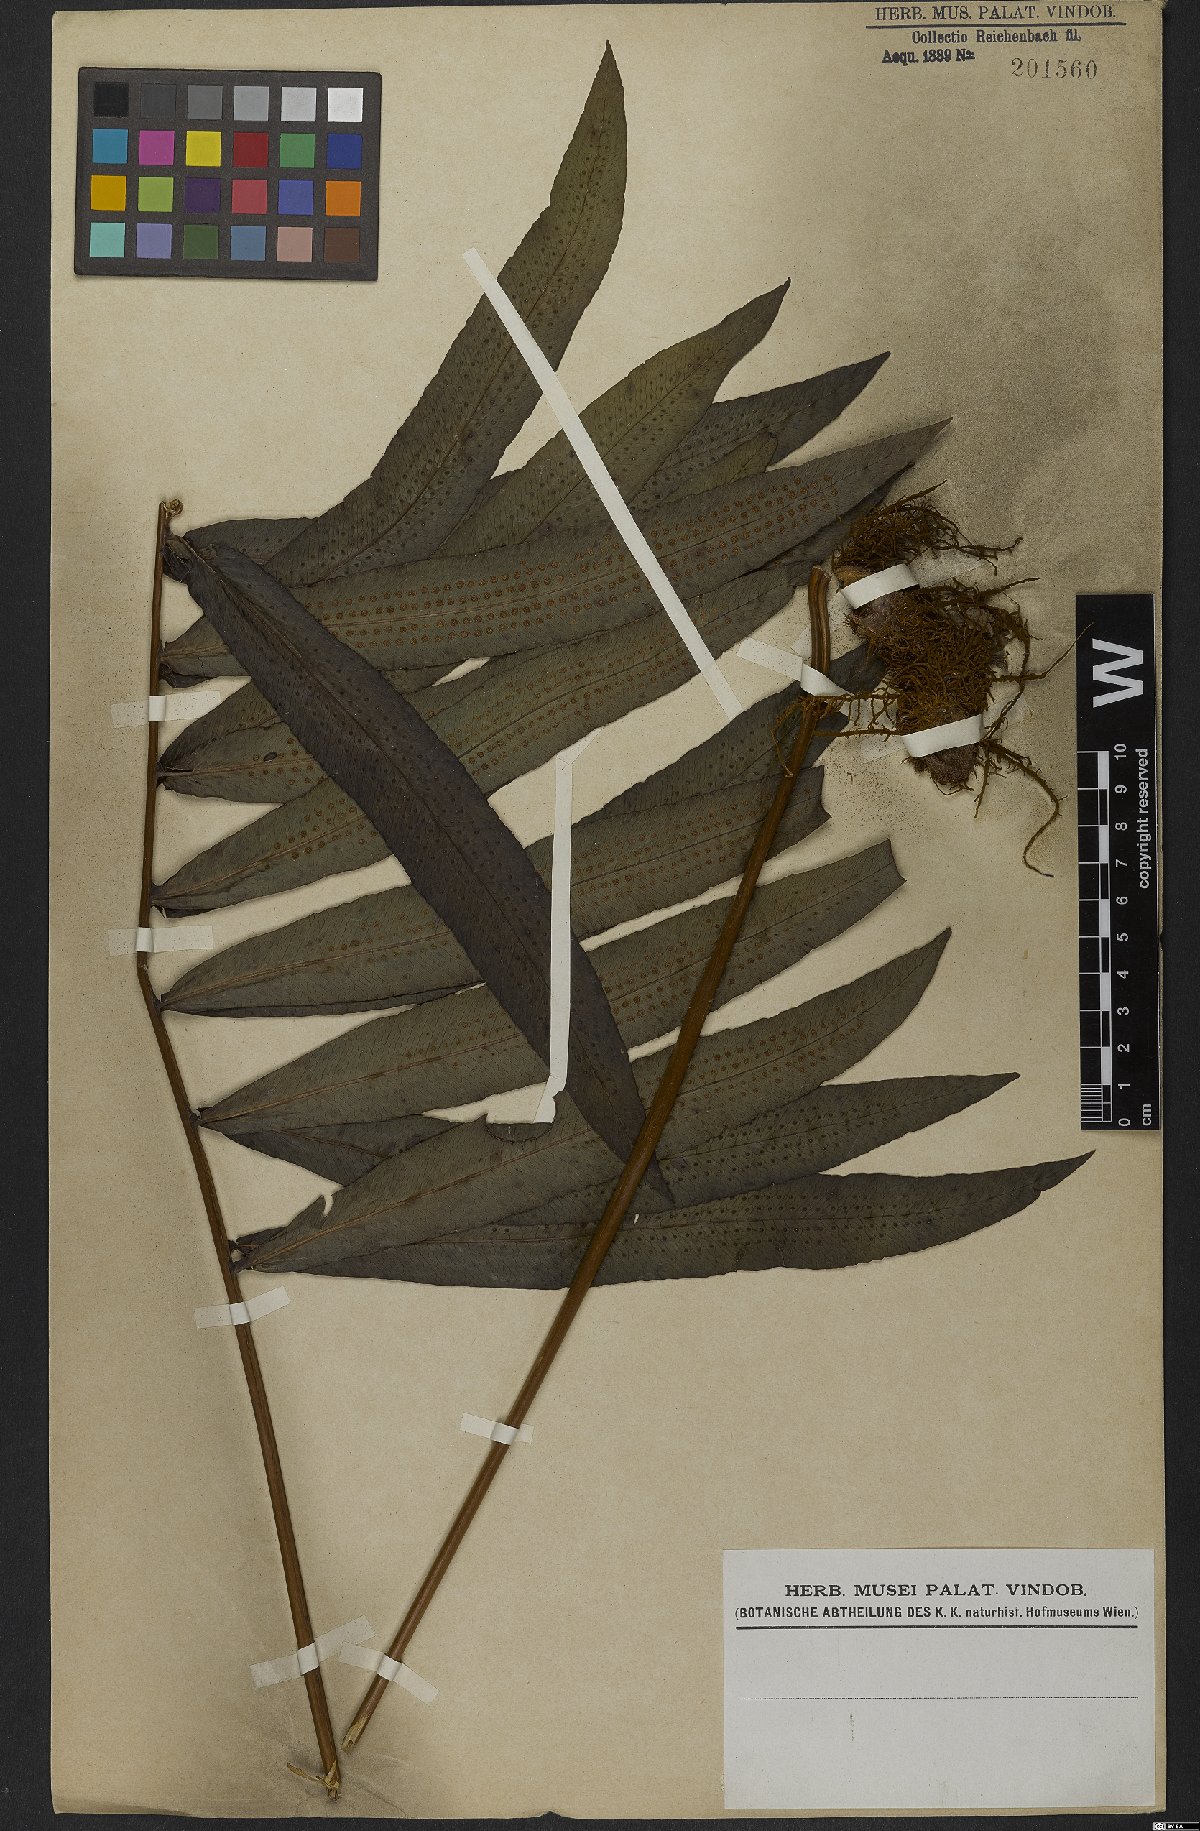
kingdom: Plantae
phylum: Tracheophyta
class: Polypodiopsida
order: Polypodiales
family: Polypodiaceae
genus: Serpocaulon
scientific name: Serpocaulon triseriale
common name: Angle-vein fern
